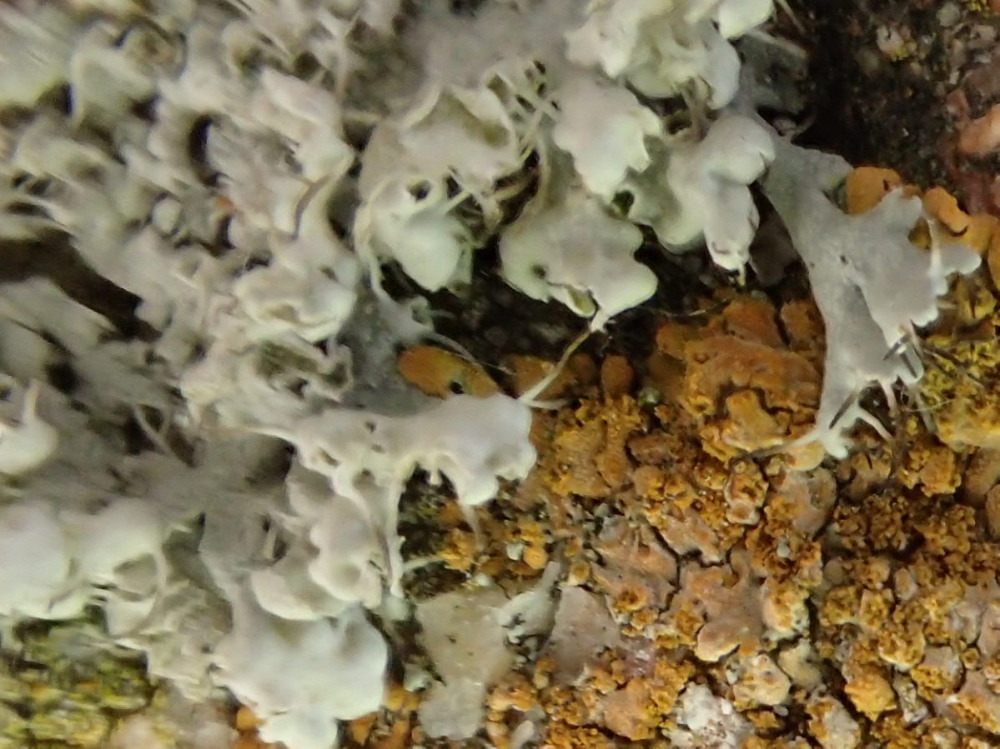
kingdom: Fungi
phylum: Ascomycota
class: Lecanoromycetes
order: Caliciales
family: Physciaceae
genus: Physcia
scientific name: Physcia adscendens
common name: hætte-rosetlav
